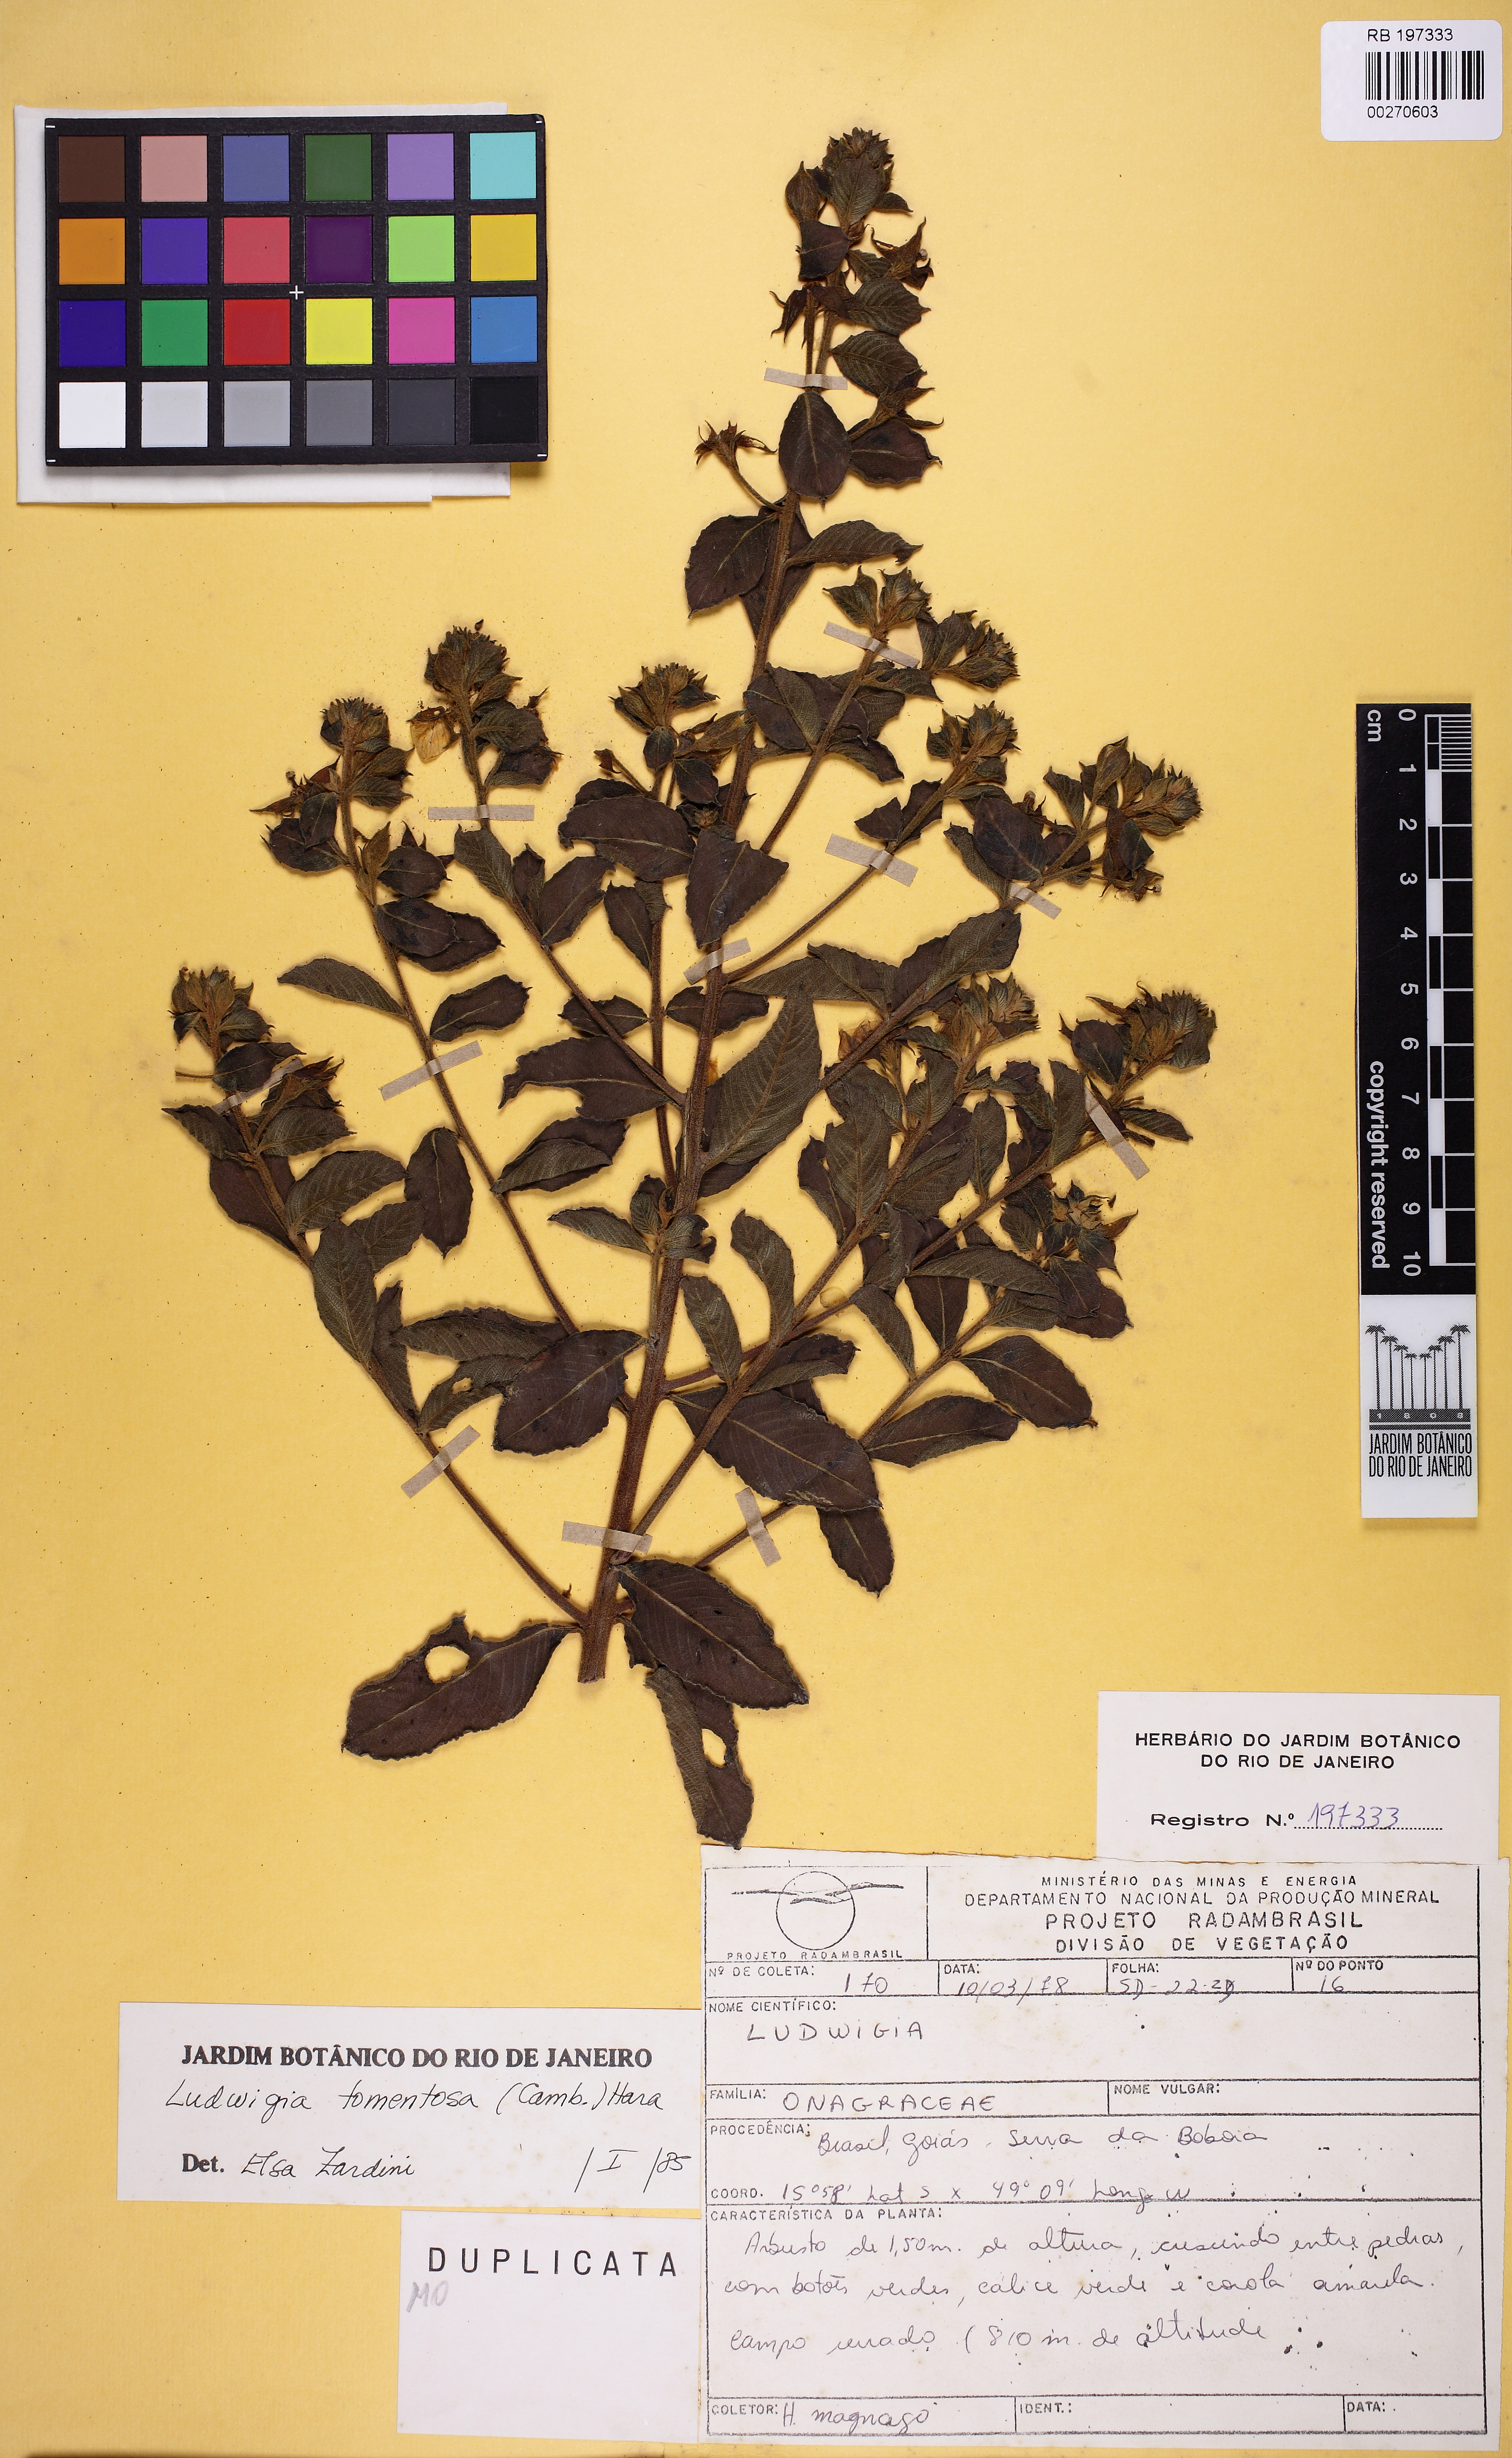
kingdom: Plantae
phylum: Tracheophyta
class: Magnoliopsida
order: Myrtales
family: Onagraceae
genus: Ludwigia
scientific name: Ludwigia tomentosa
